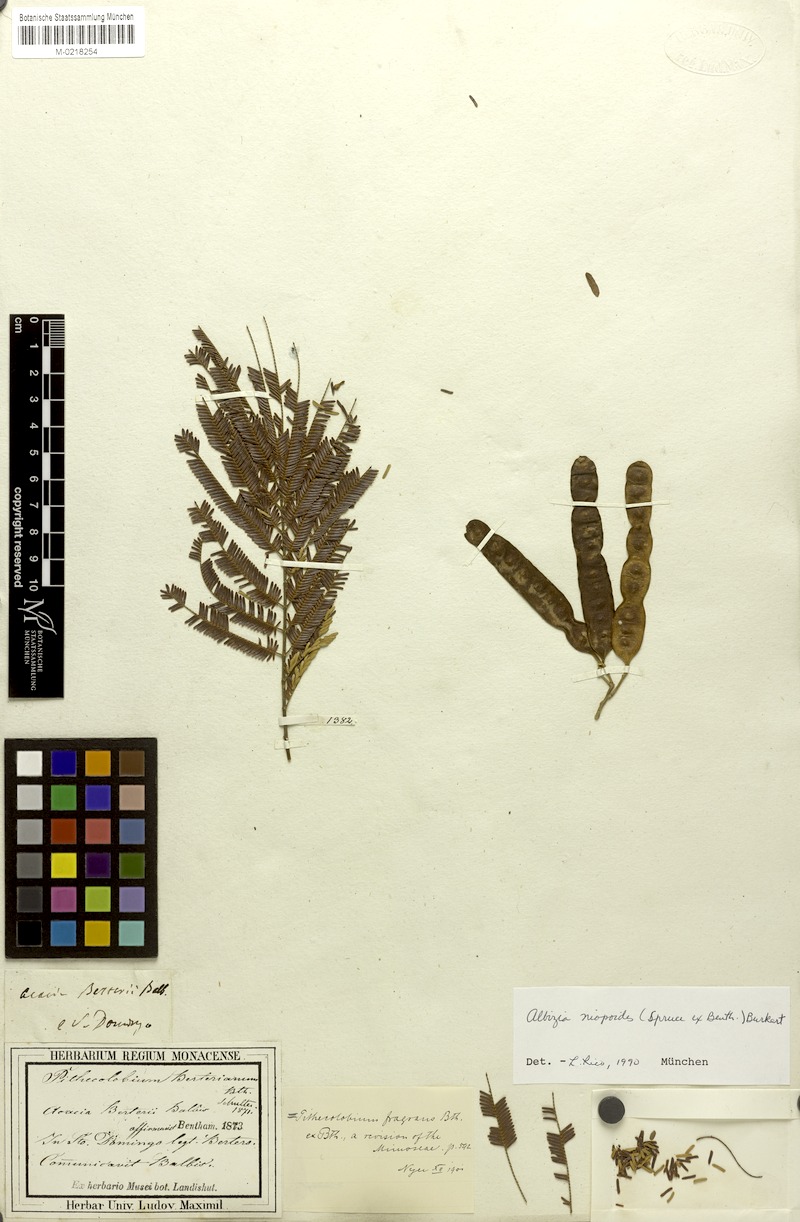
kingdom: Plantae
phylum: Tracheophyta
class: Magnoliopsida
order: Fabales
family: Fabaceae
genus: Albizia
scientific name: Albizia niopoides
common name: Silk tree
